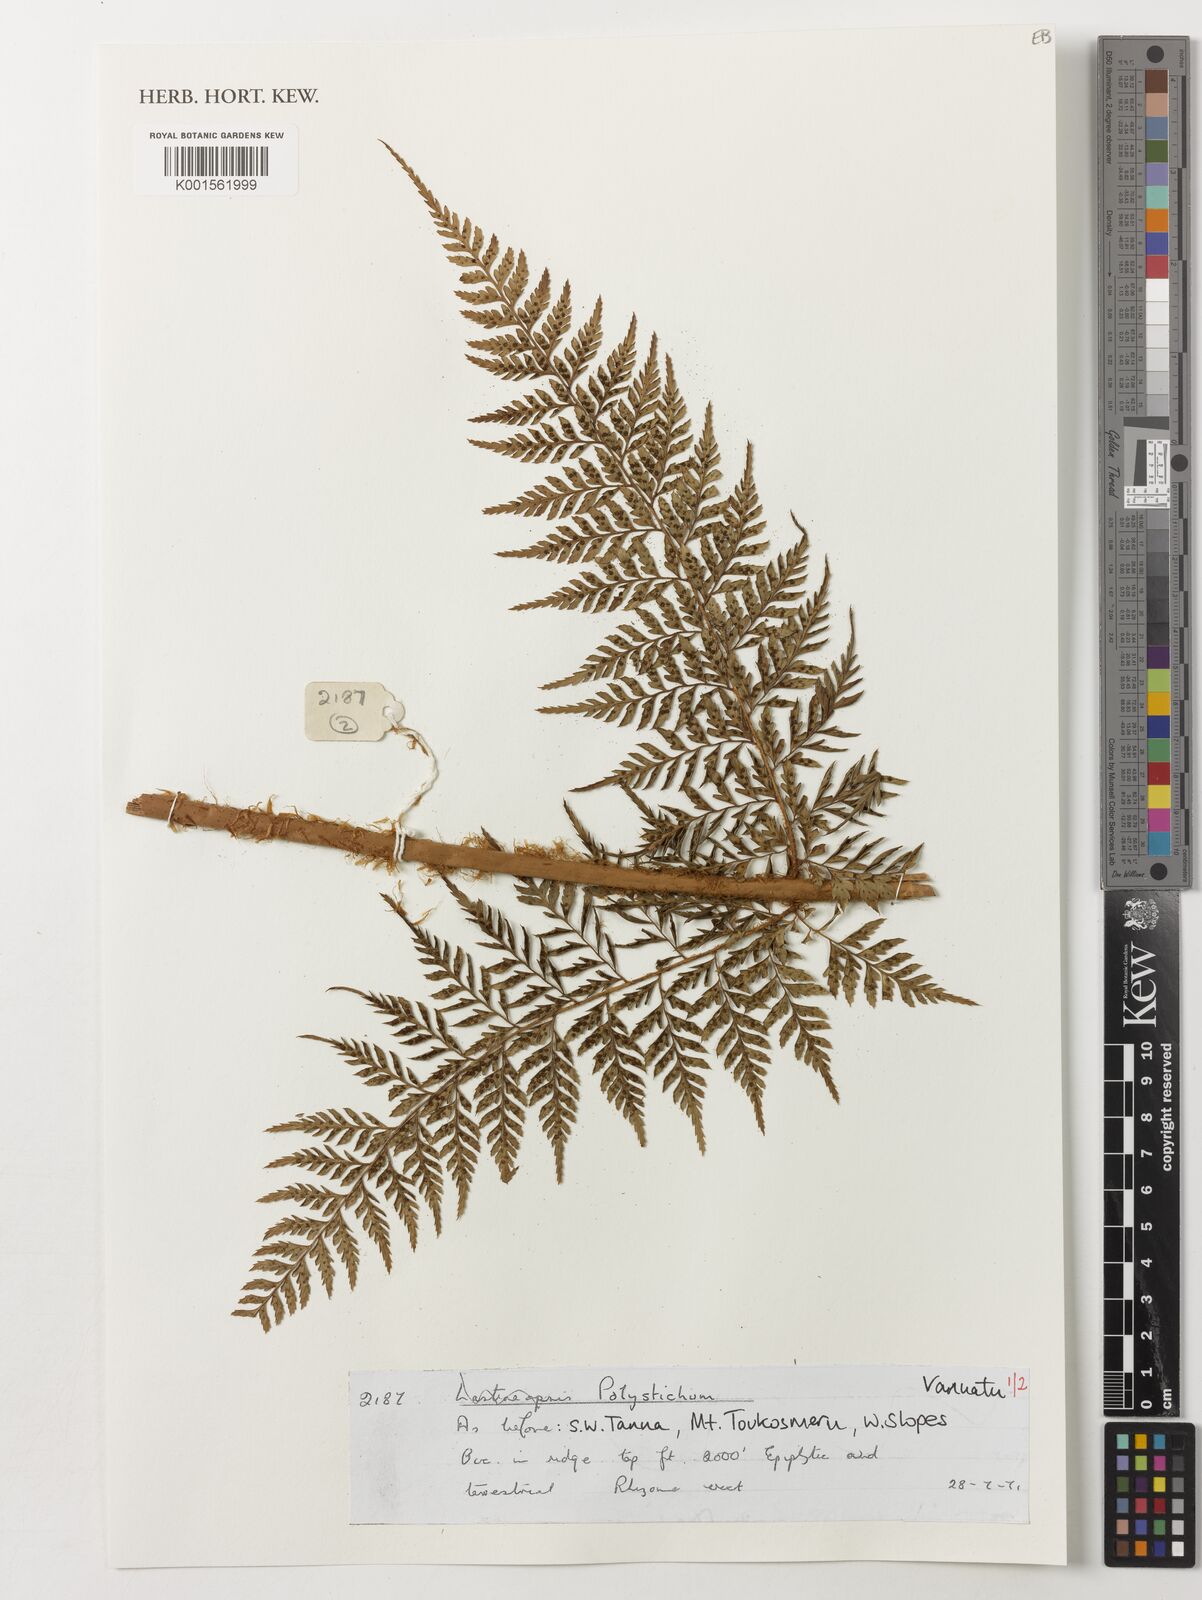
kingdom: Plantae
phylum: Tracheophyta
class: Polypodiopsida
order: Polypodiales
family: Dryopteridaceae
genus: Polystichum
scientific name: Polystichum
